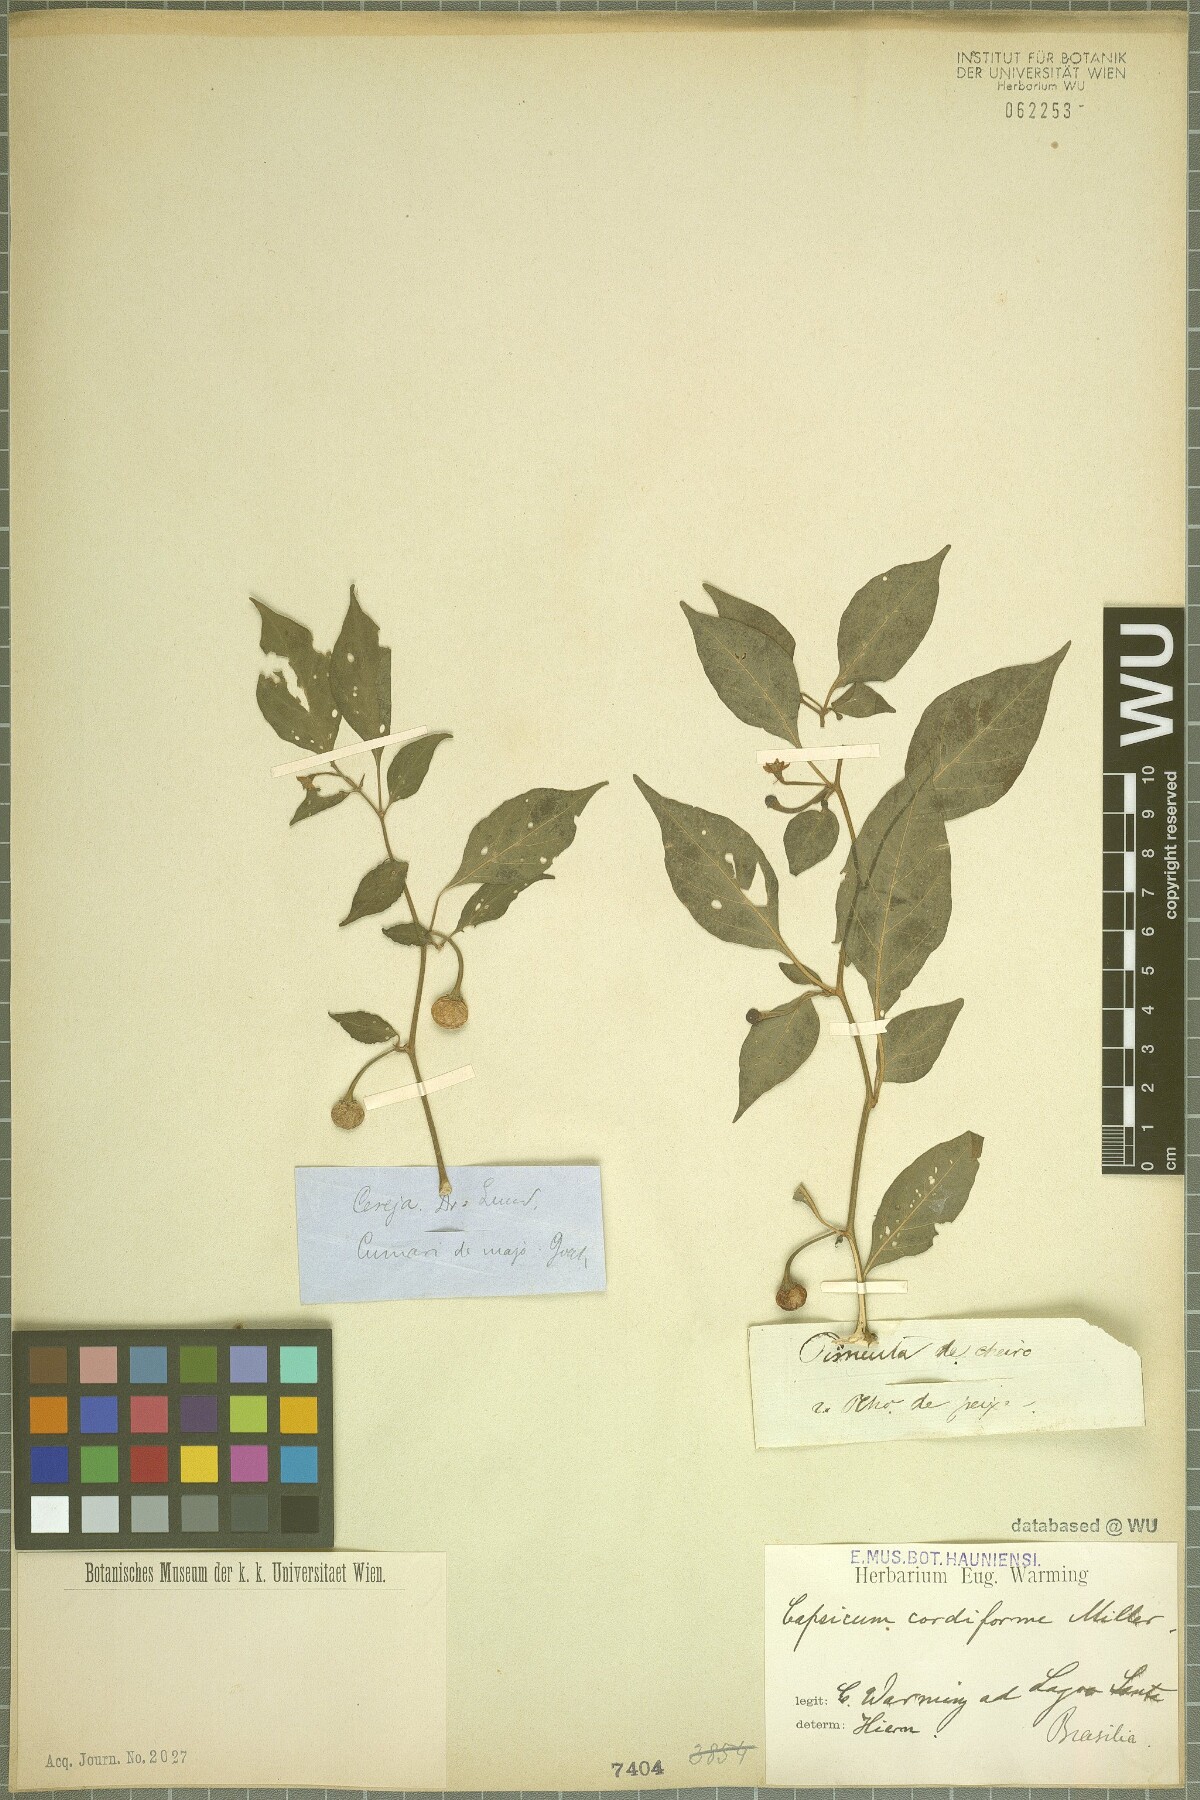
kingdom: Plantae
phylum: Tracheophyta
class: Magnoliopsida
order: Solanales
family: Solanaceae
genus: Capsicum
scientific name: Capsicum annuum
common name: Sweet pepper
